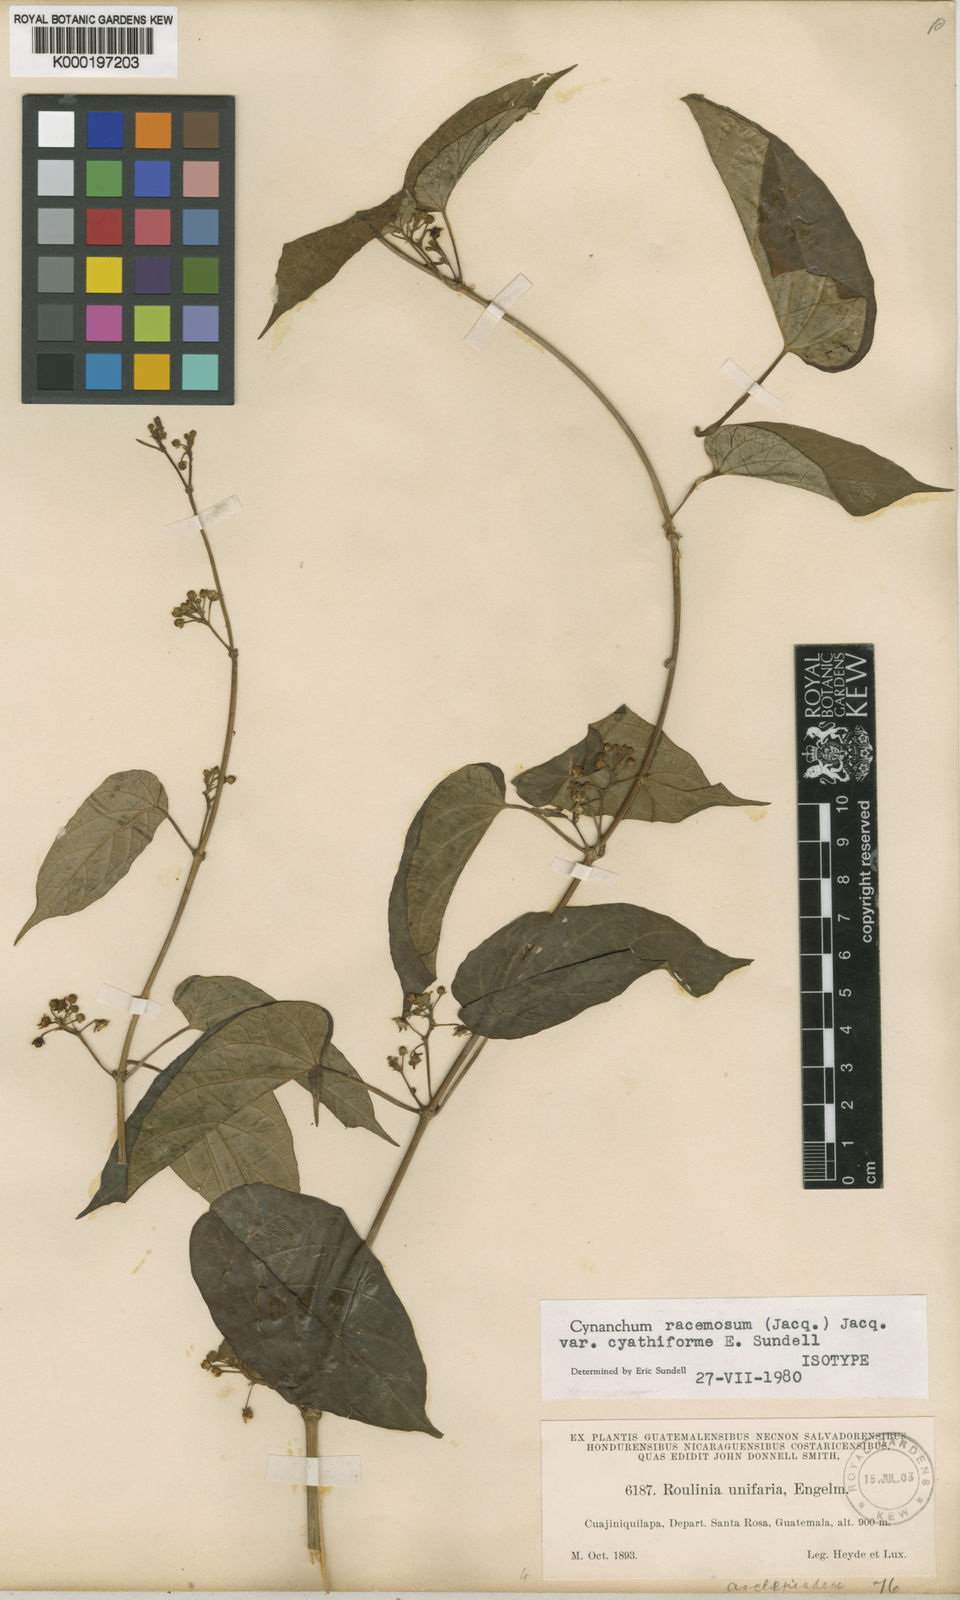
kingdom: Plantae
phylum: Tracheophyta
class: Magnoliopsida
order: Gentianales
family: Apocynaceae
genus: Cynanchum
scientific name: Cynanchum racemosum
